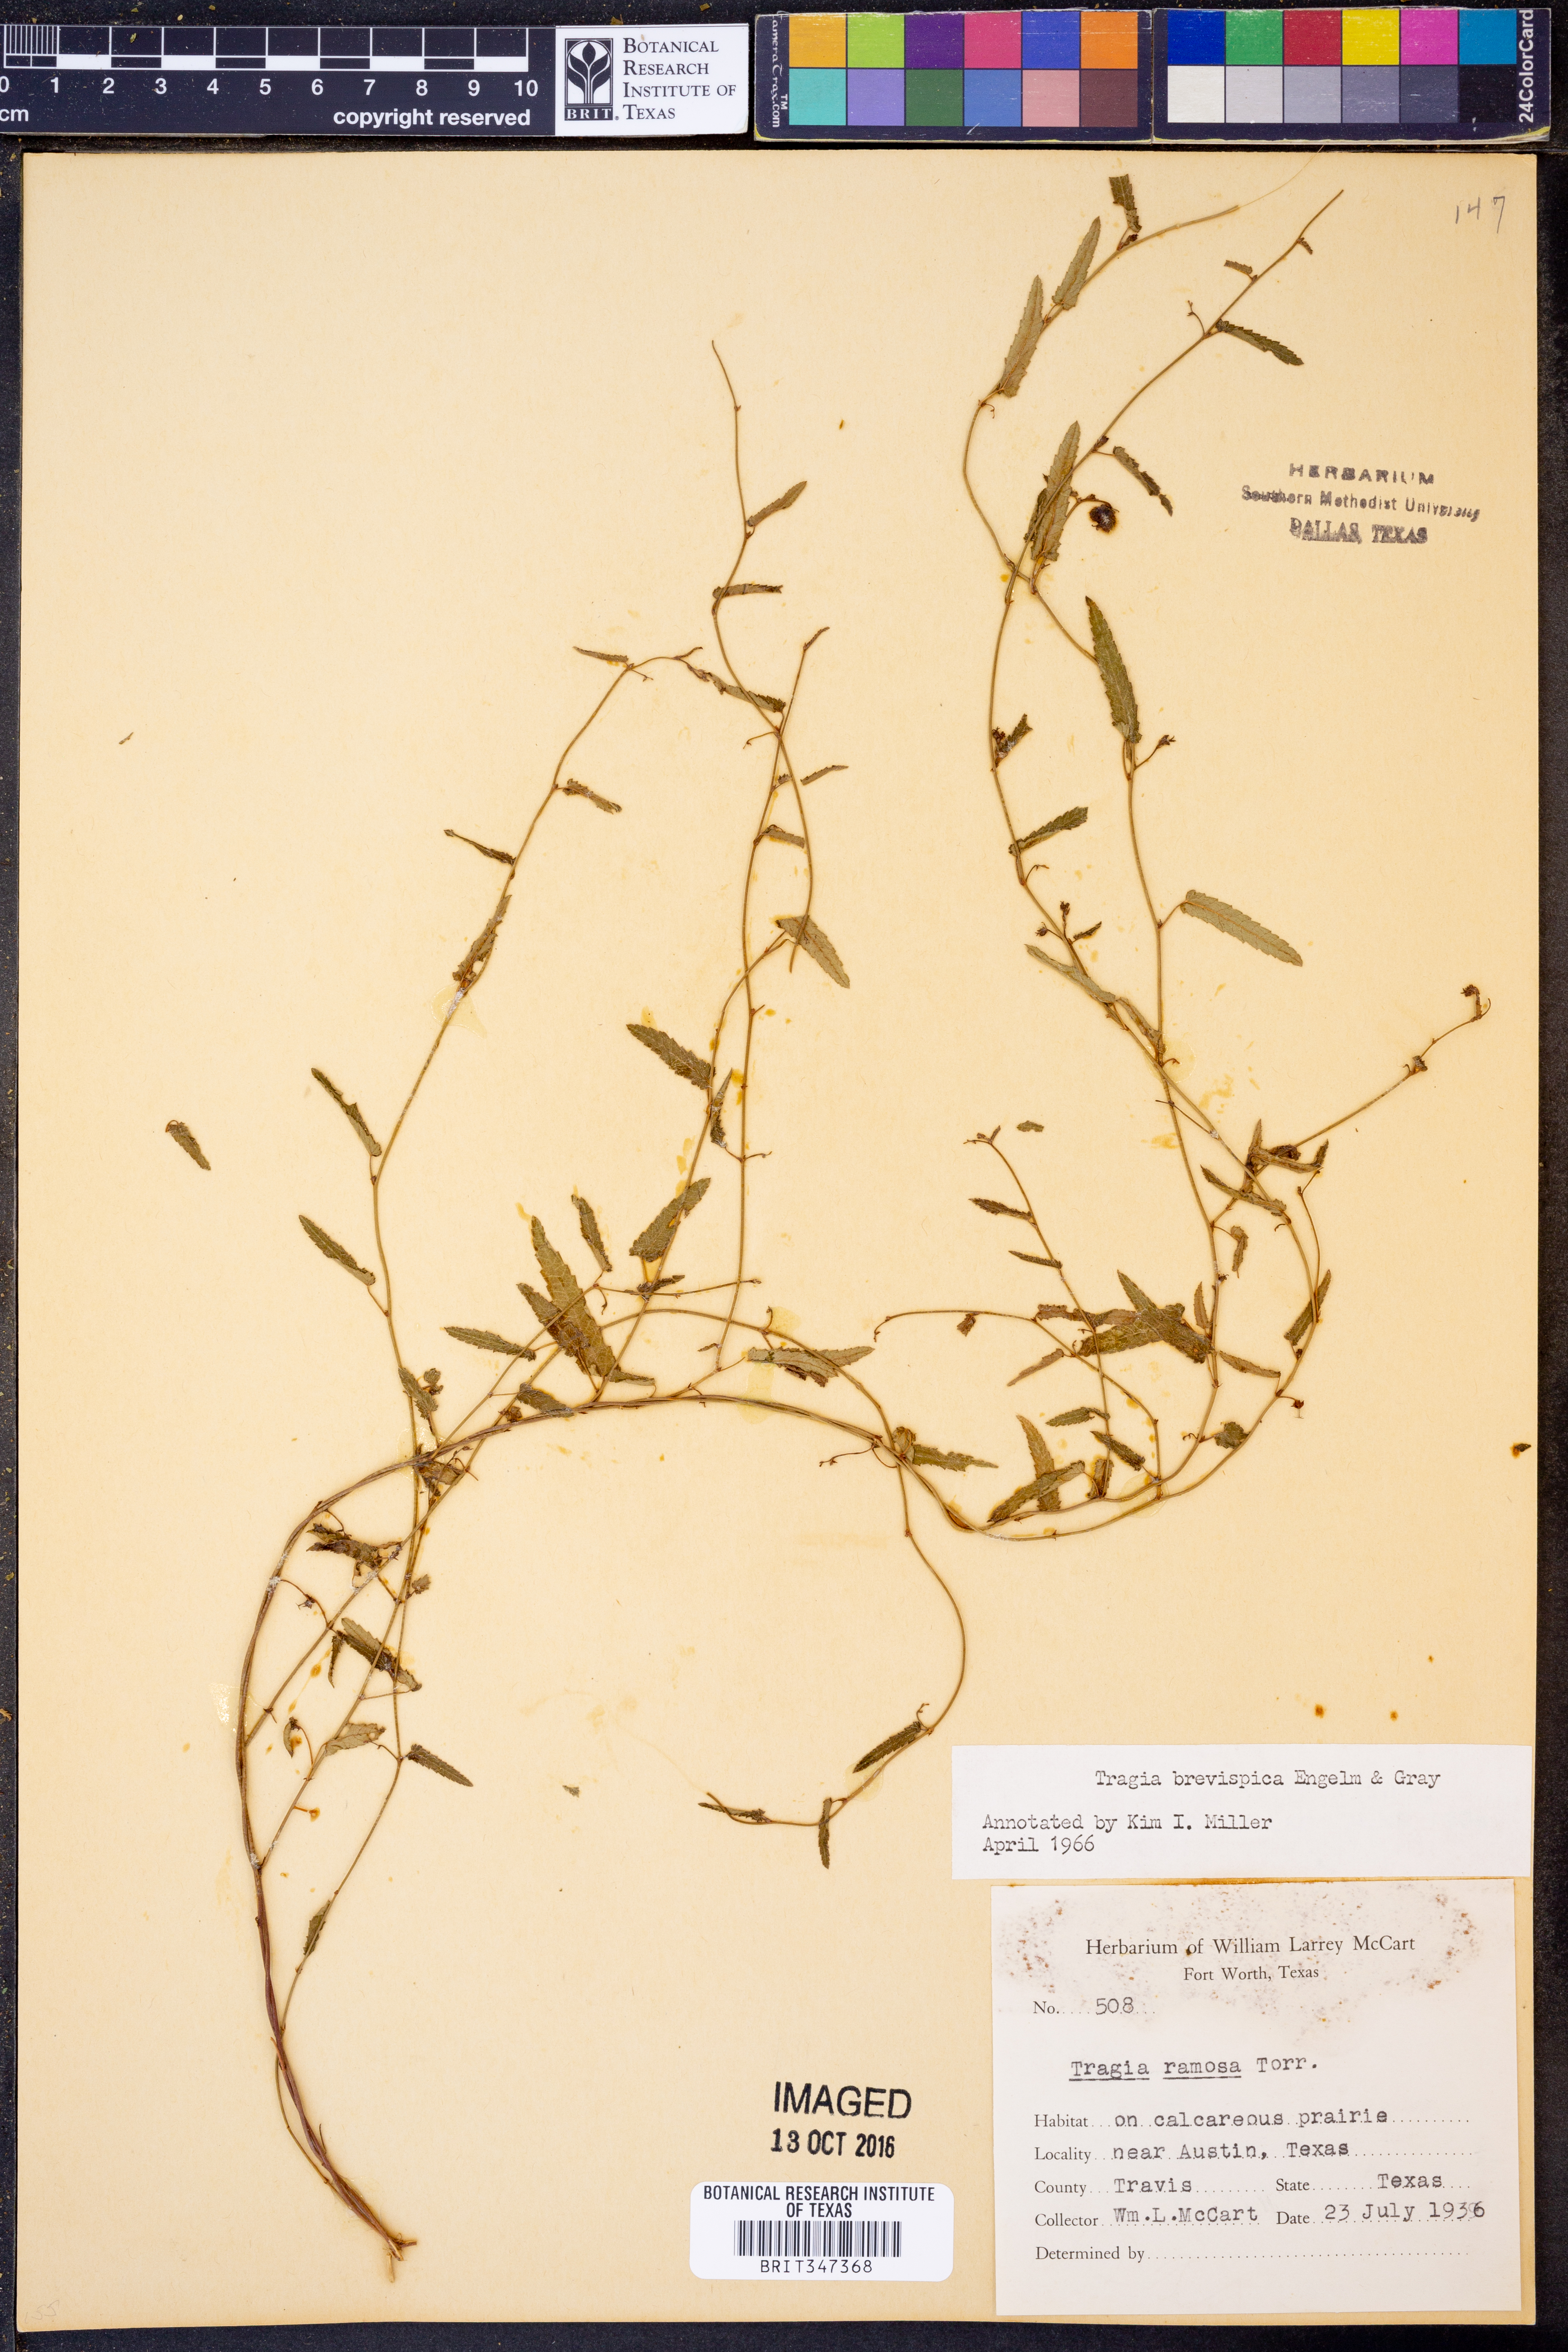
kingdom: Plantae
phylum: Tracheophyta
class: Magnoliopsida
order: Malpighiales
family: Euphorbiaceae
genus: Tragia
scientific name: Tragia brevispica
